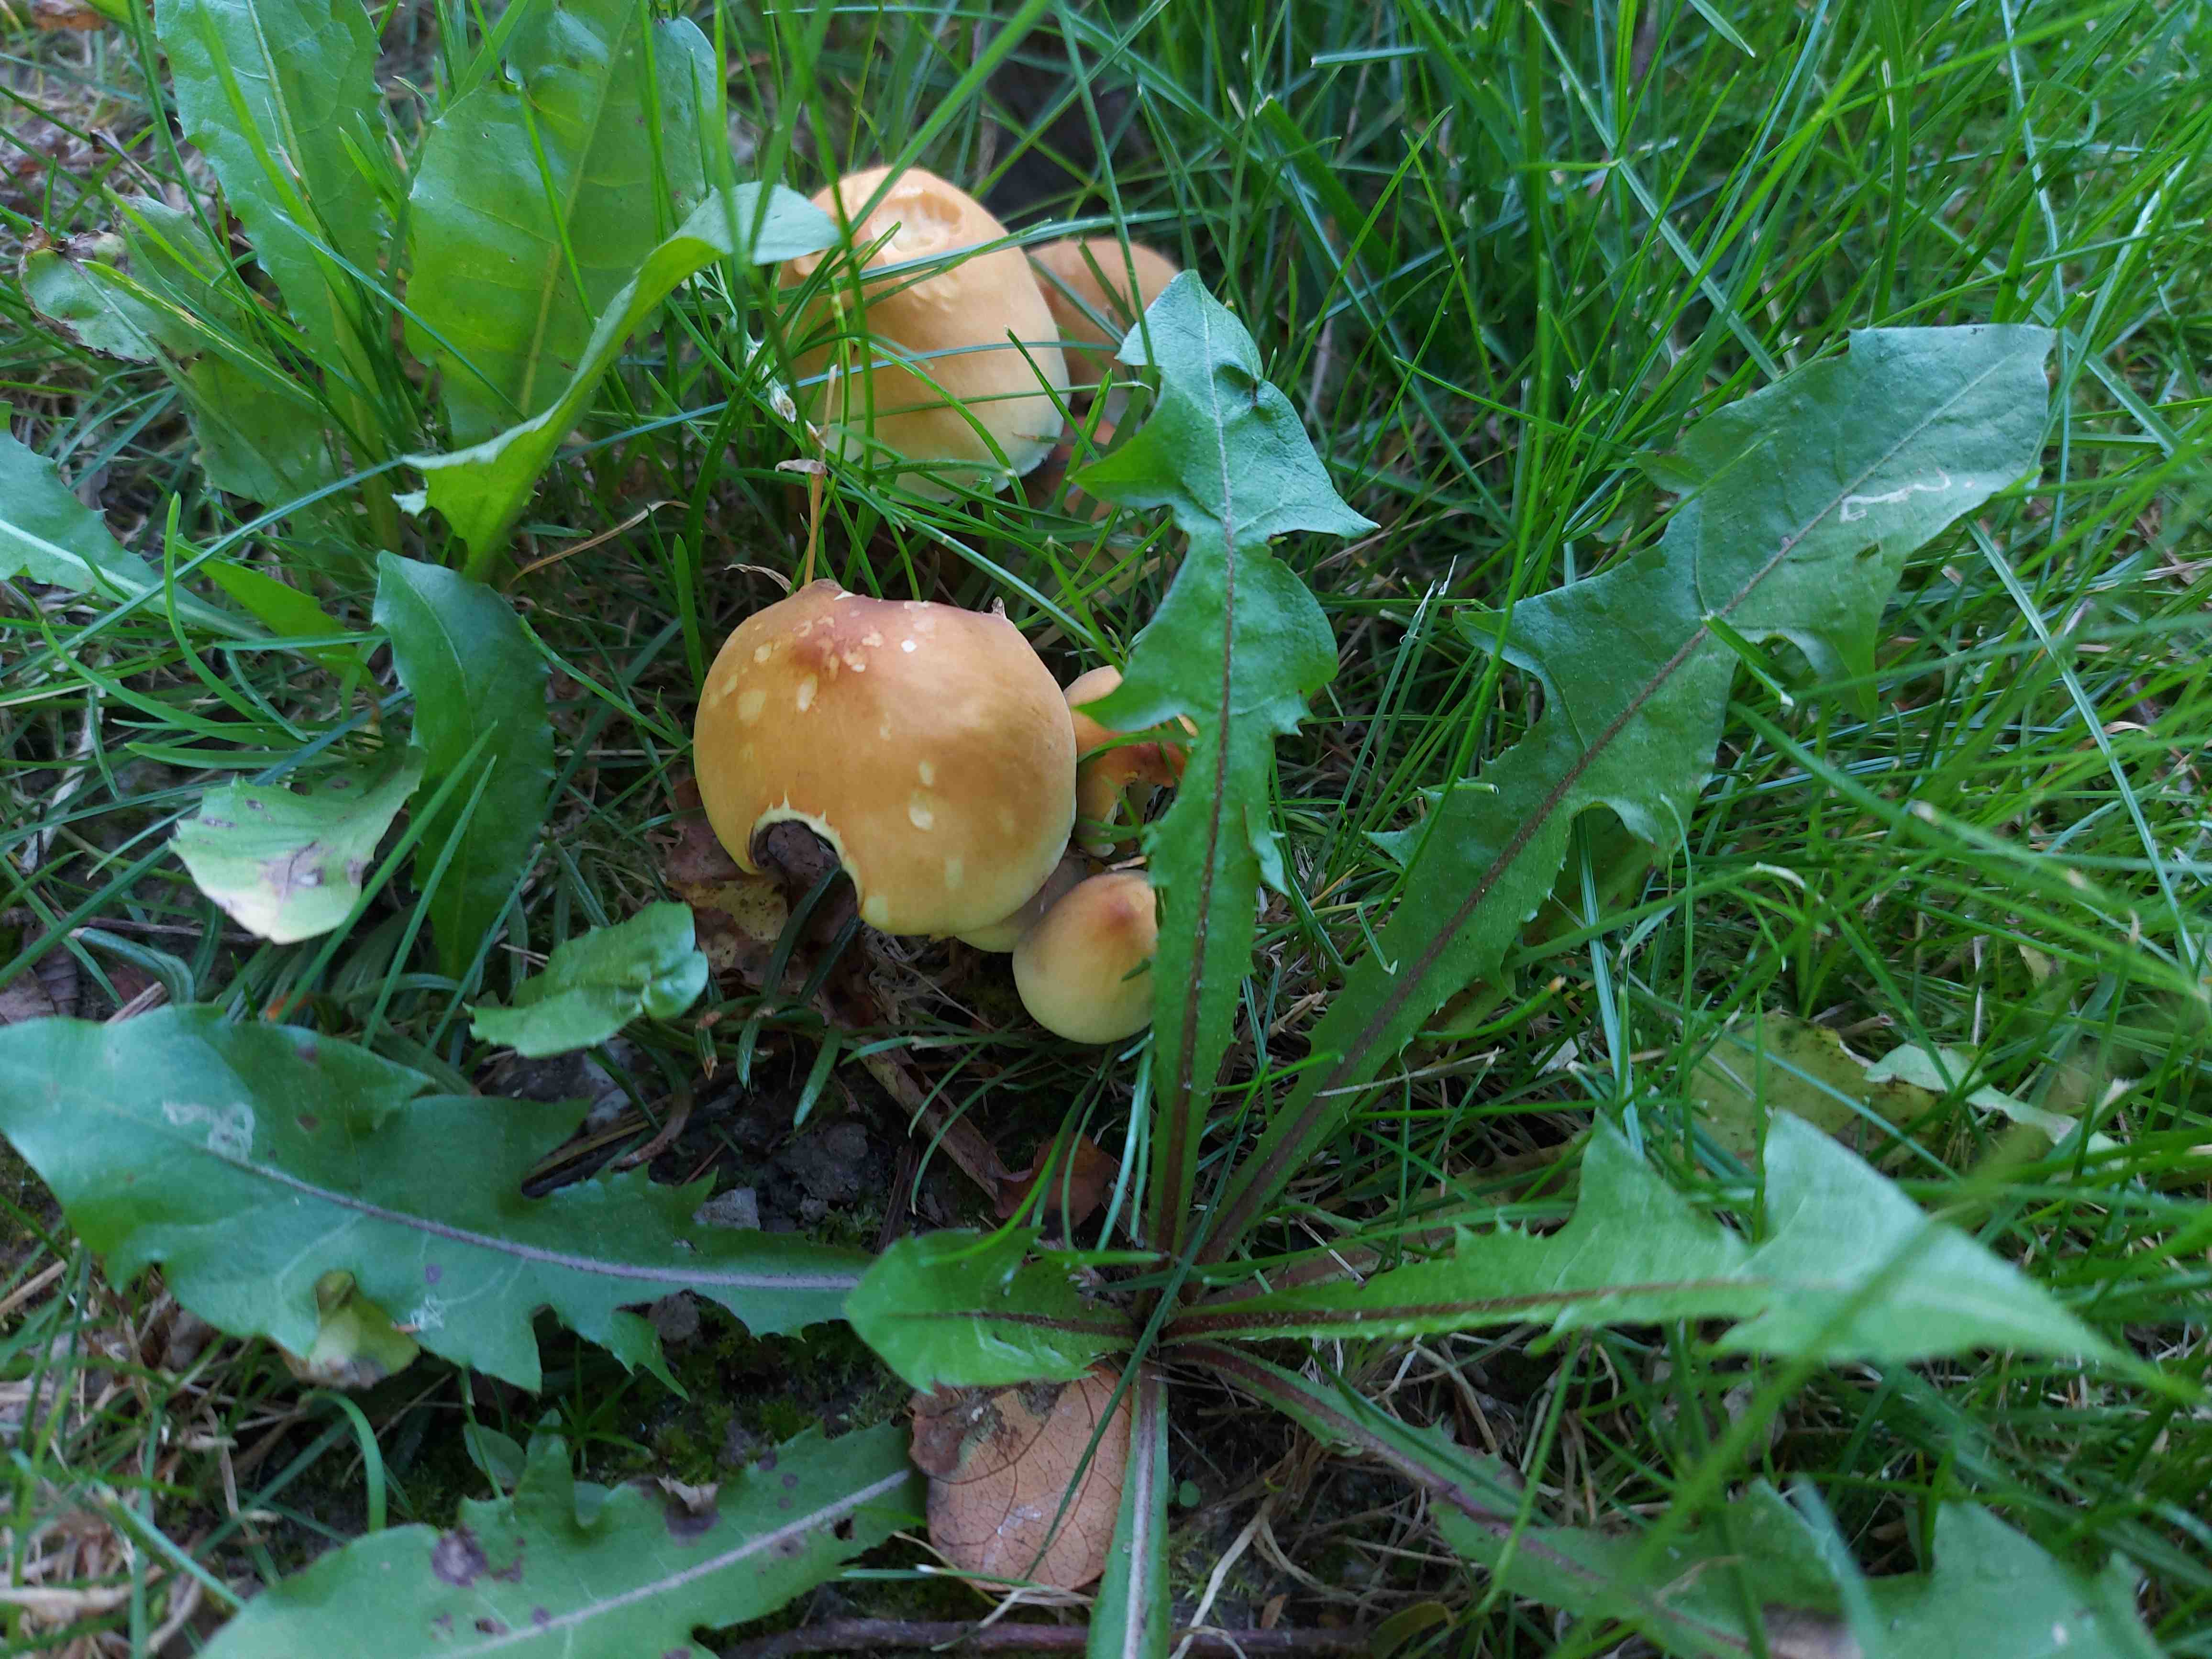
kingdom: Fungi
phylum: Basidiomycota
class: Agaricomycetes
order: Agaricales
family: Strophariaceae
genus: Hypholoma
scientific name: Hypholoma fasciculare
